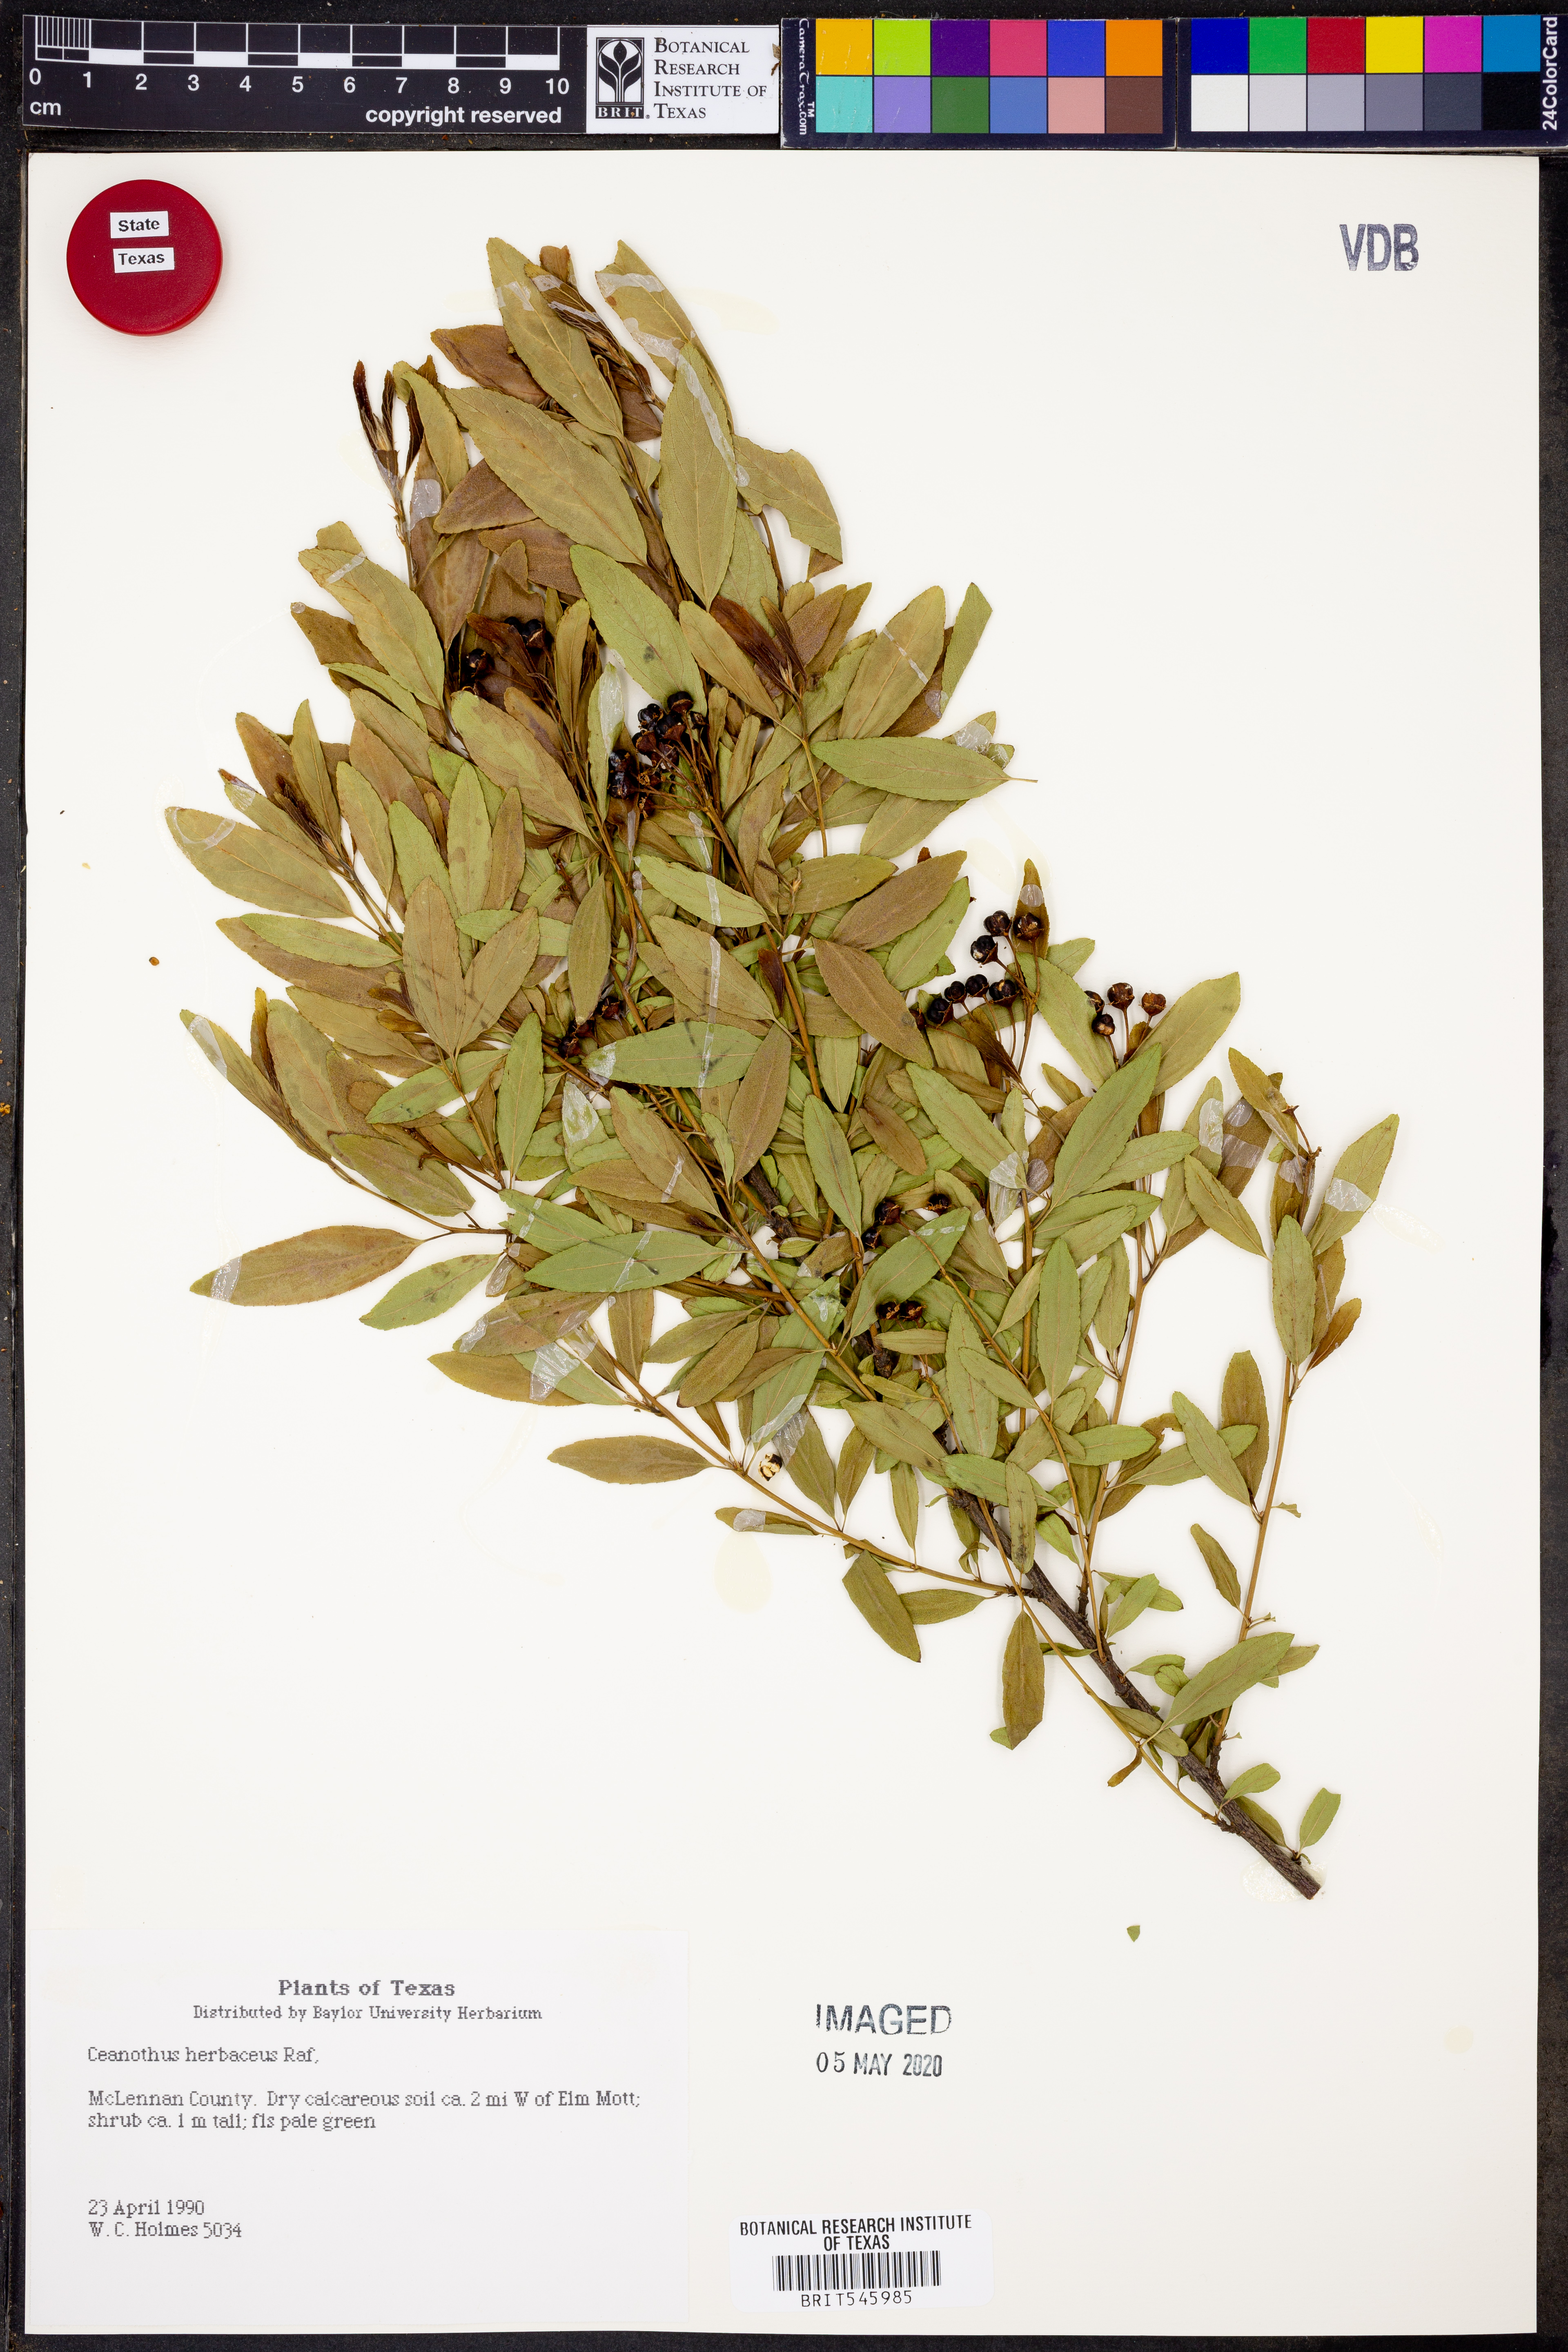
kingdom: Plantae
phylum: Tracheophyta
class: Magnoliopsida
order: Rosales
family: Rhamnaceae
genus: Ceanothus
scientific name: Ceanothus herbaceus
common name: Inland ceanothus
